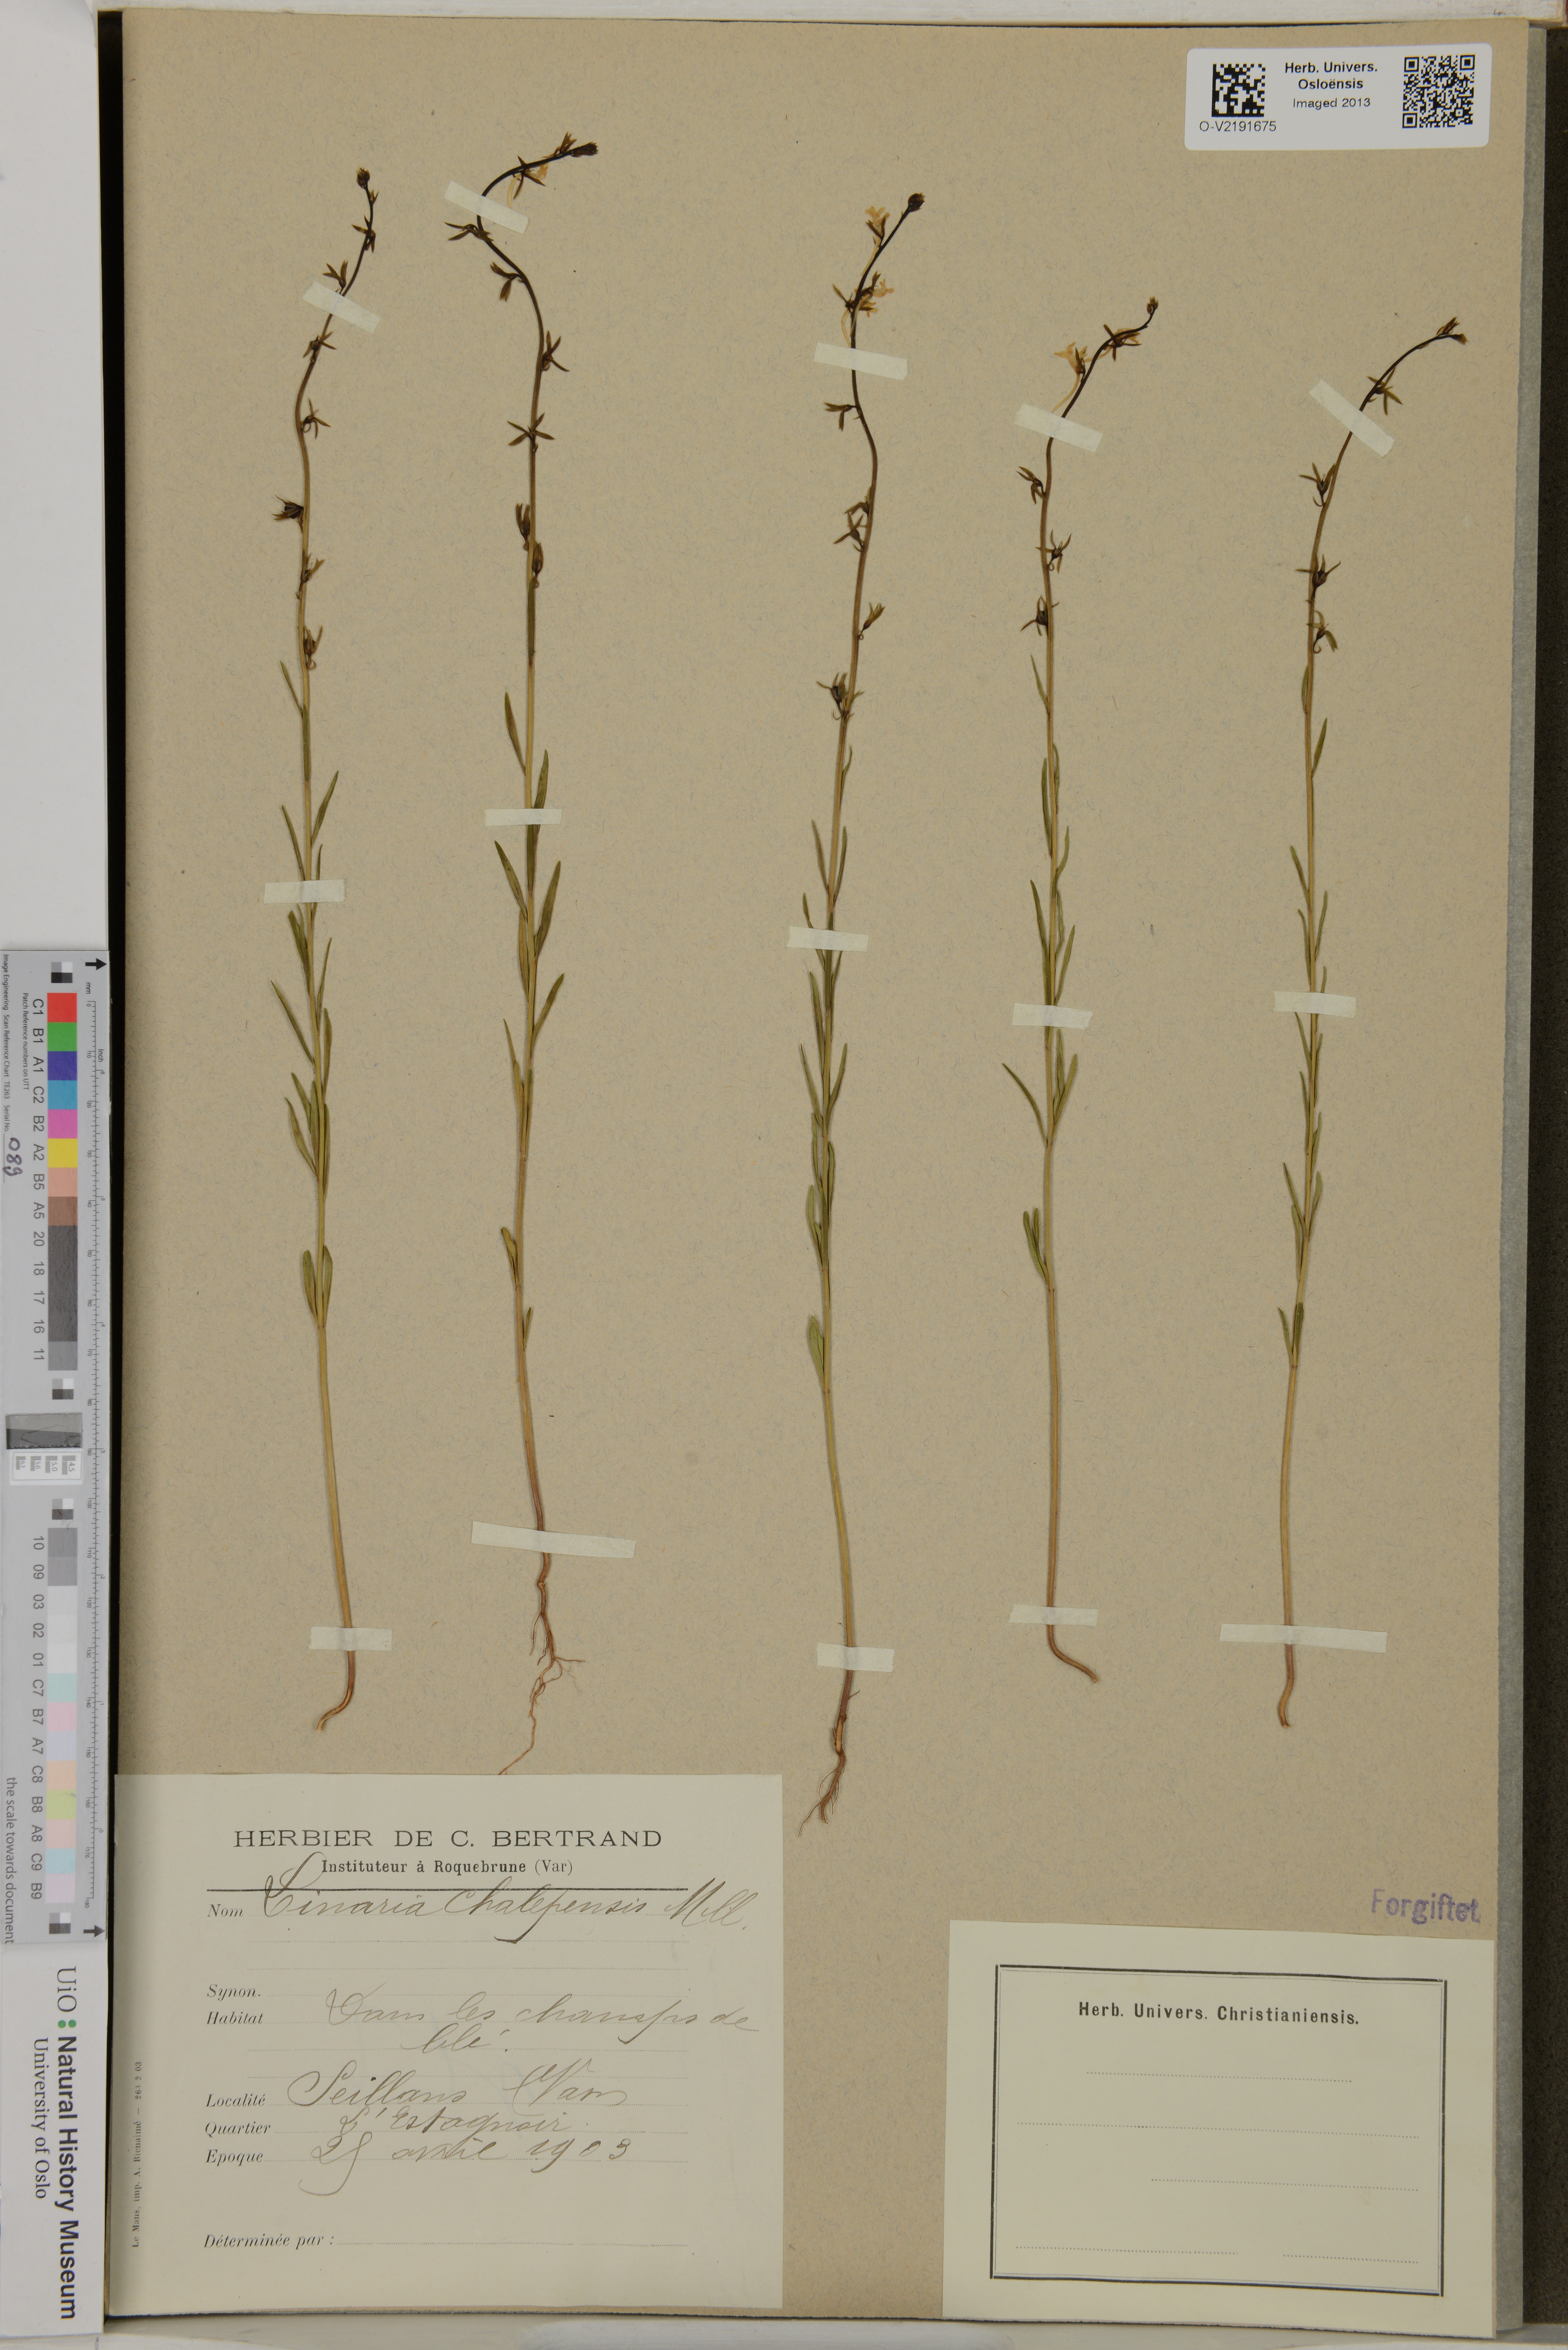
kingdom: Plantae
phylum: Tracheophyta
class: Magnoliopsida
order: Lamiales
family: Plantaginaceae
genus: Linaria
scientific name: Linaria chalepensis
